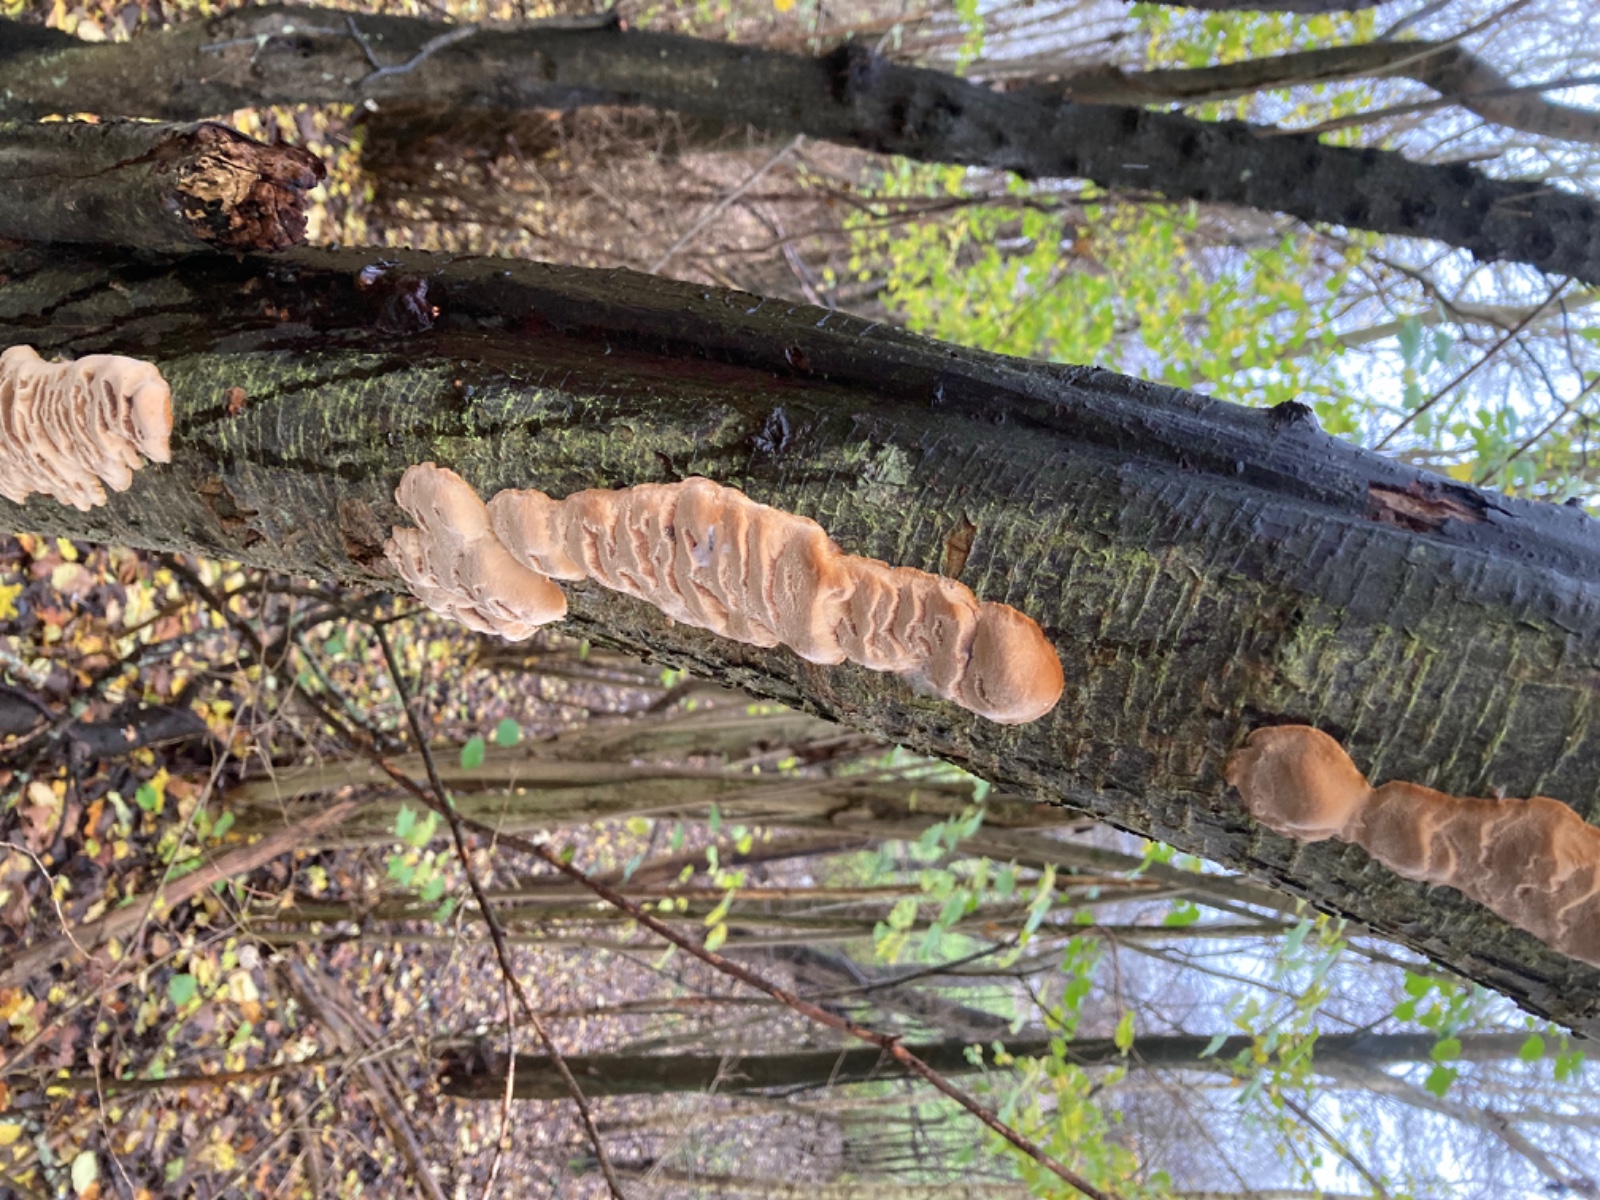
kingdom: Fungi
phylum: Basidiomycota
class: Agaricomycetes
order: Hymenochaetales
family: Hymenochaetaceae
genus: Phellinus
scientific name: Phellinus pomaceus
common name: blomme-ildporesvamp
